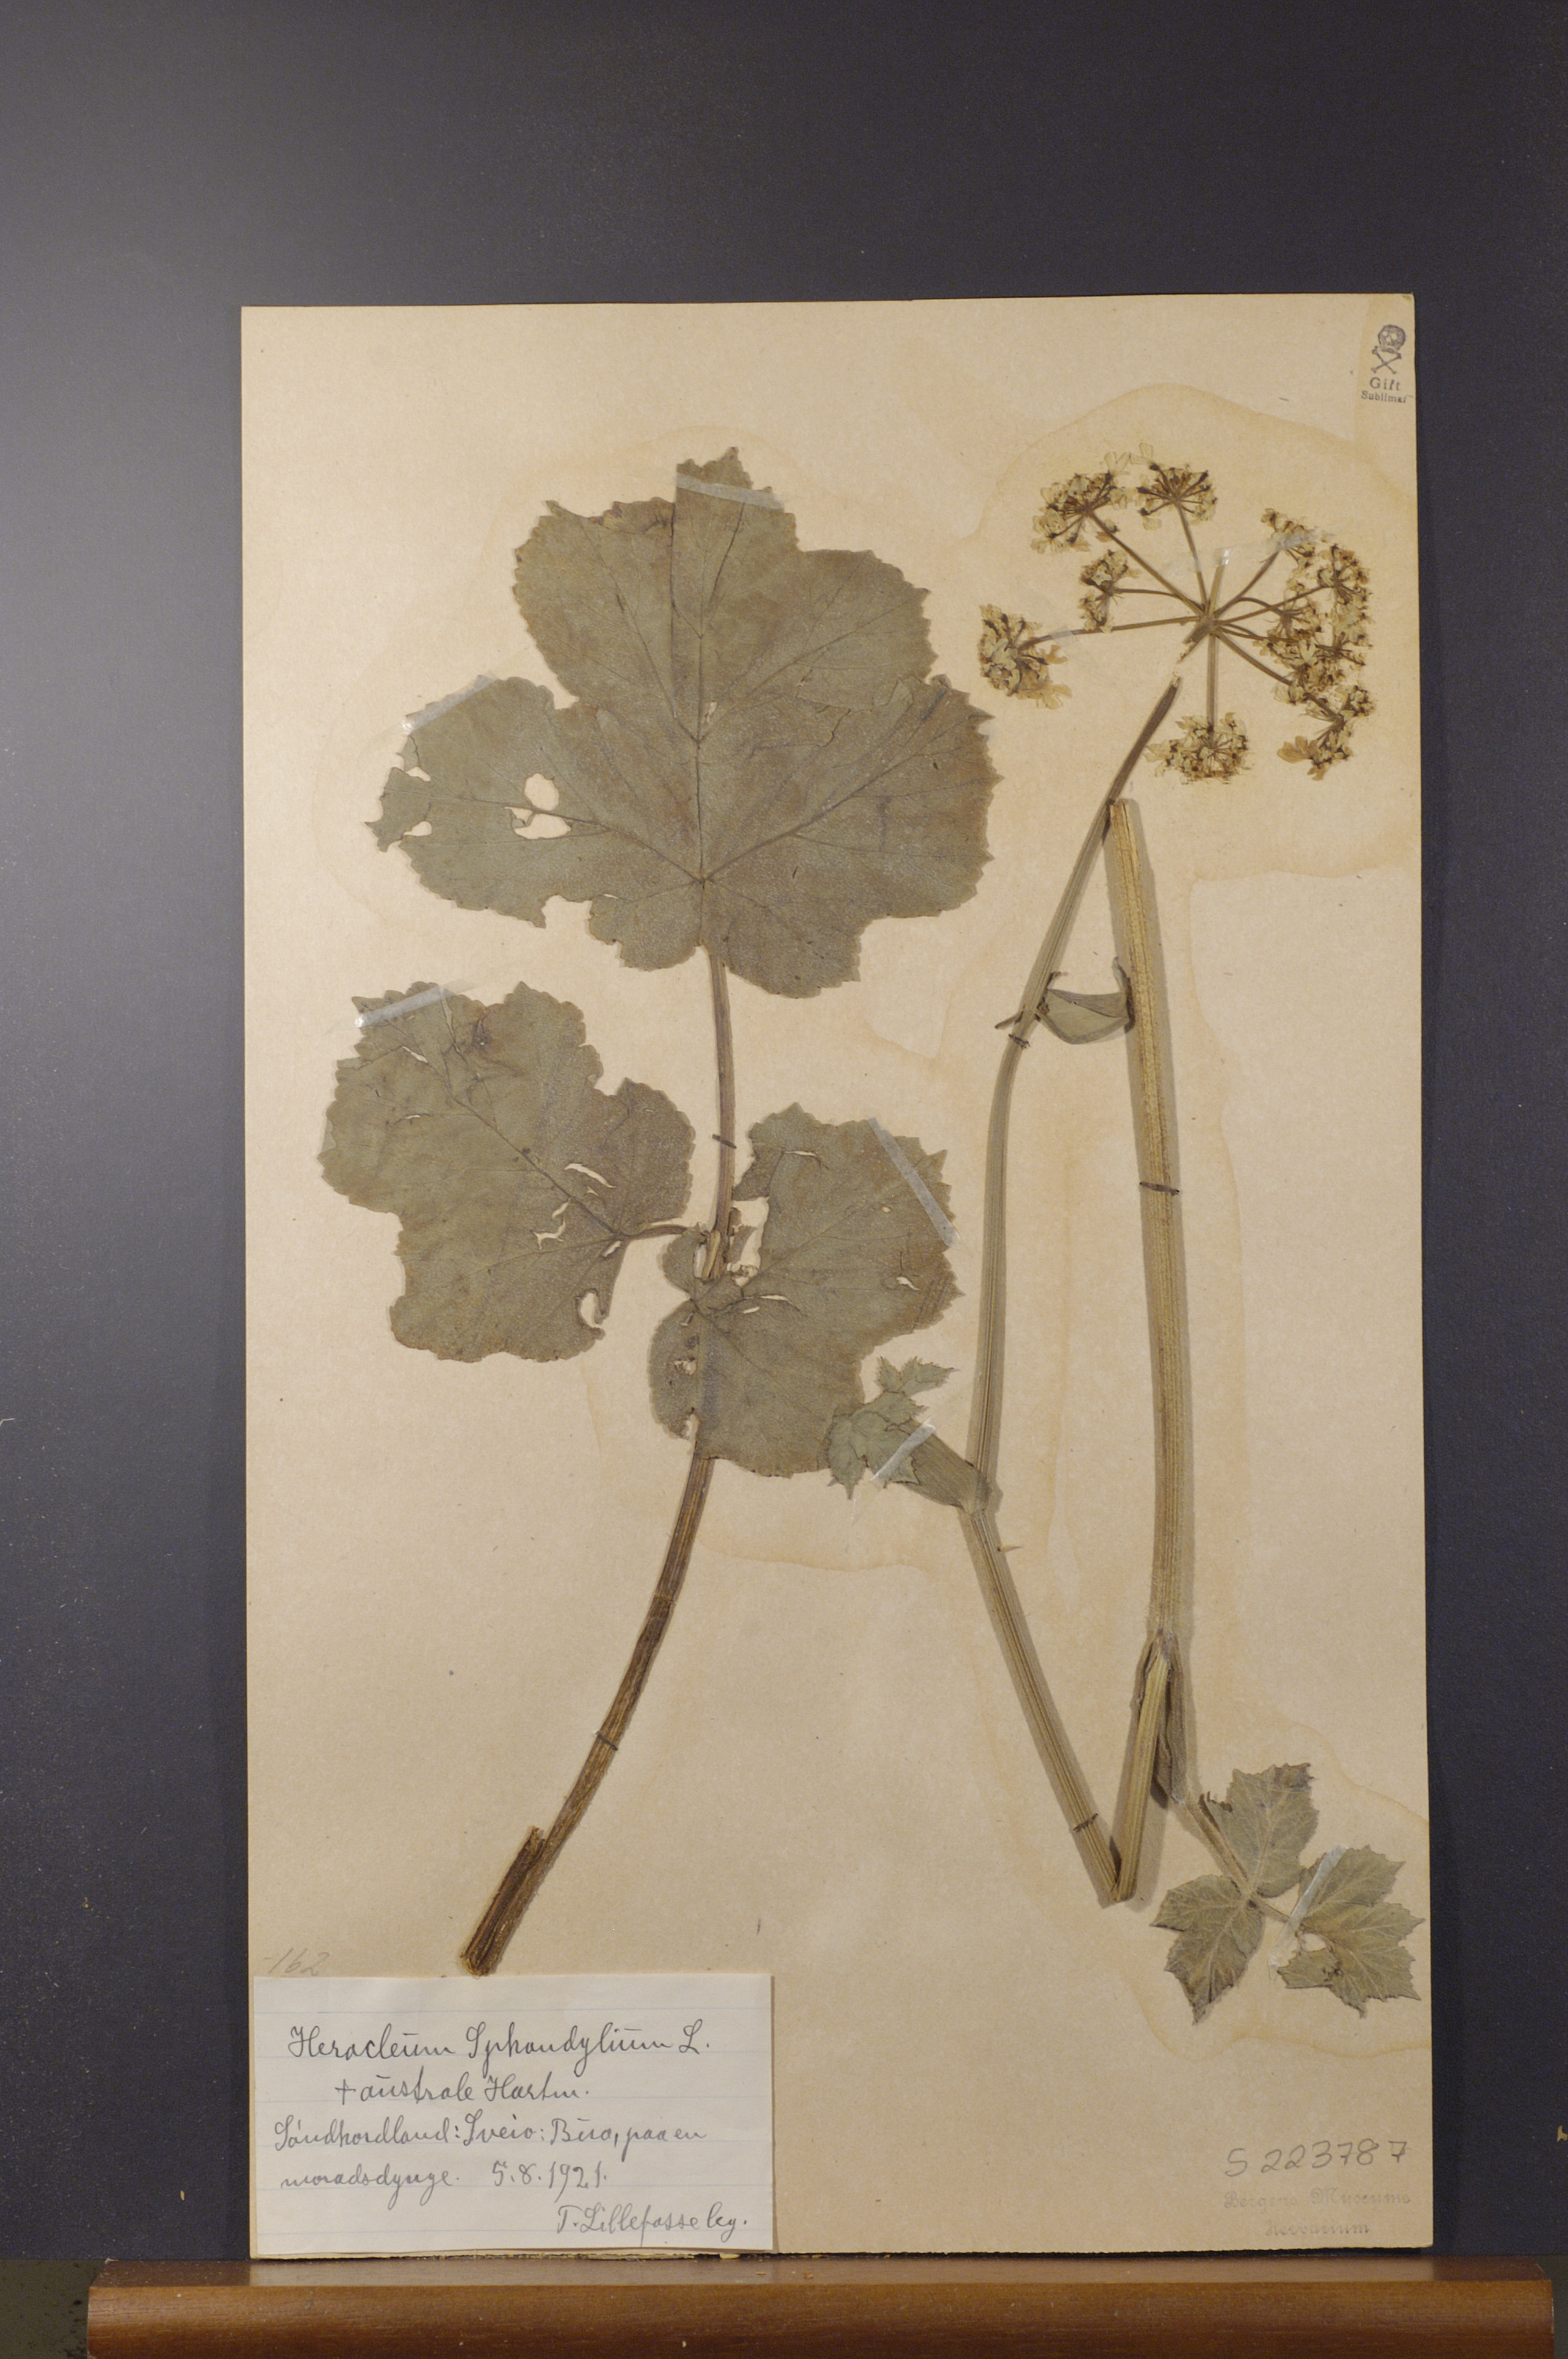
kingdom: Plantae
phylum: Tracheophyta
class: Magnoliopsida
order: Apiales
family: Apiaceae
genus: Heracleum
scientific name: Heracleum sphondylium
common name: Hogweed
